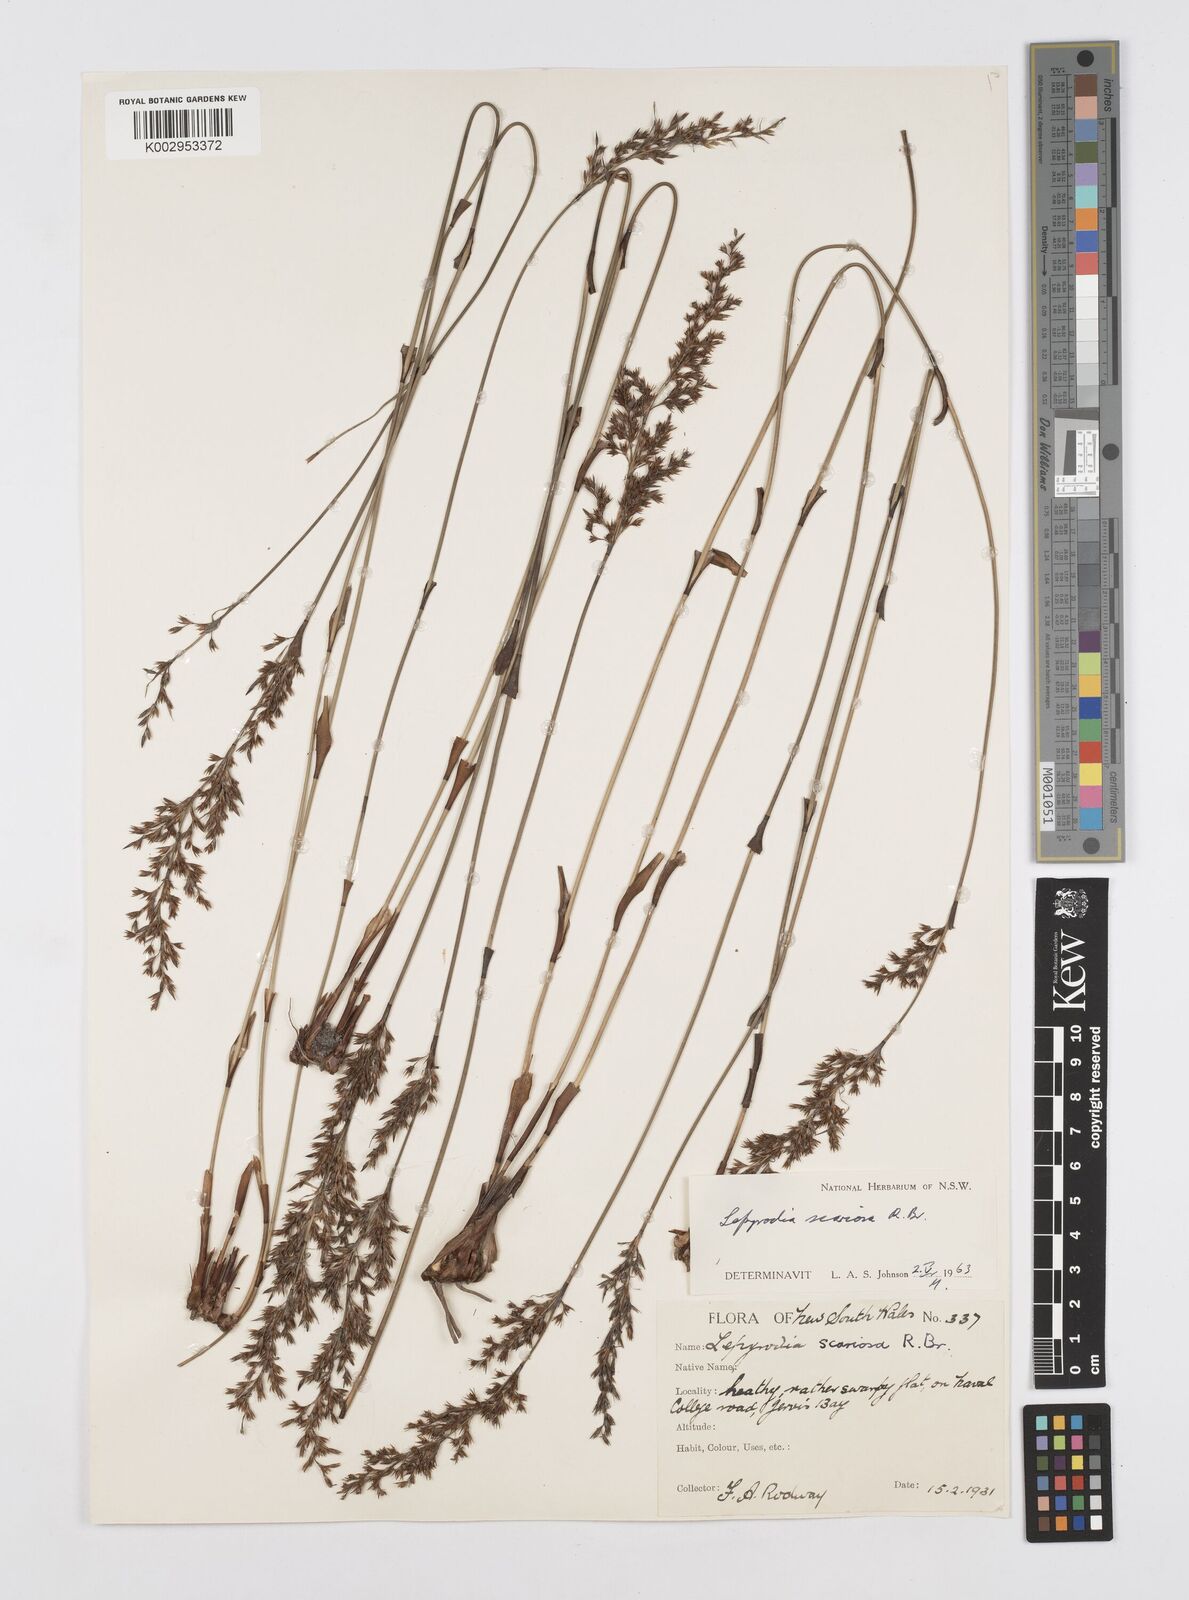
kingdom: Plantae
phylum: Tracheophyta
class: Liliopsida
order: Poales
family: Restionaceae
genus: Lepyrodia
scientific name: Lepyrodia scariosa
